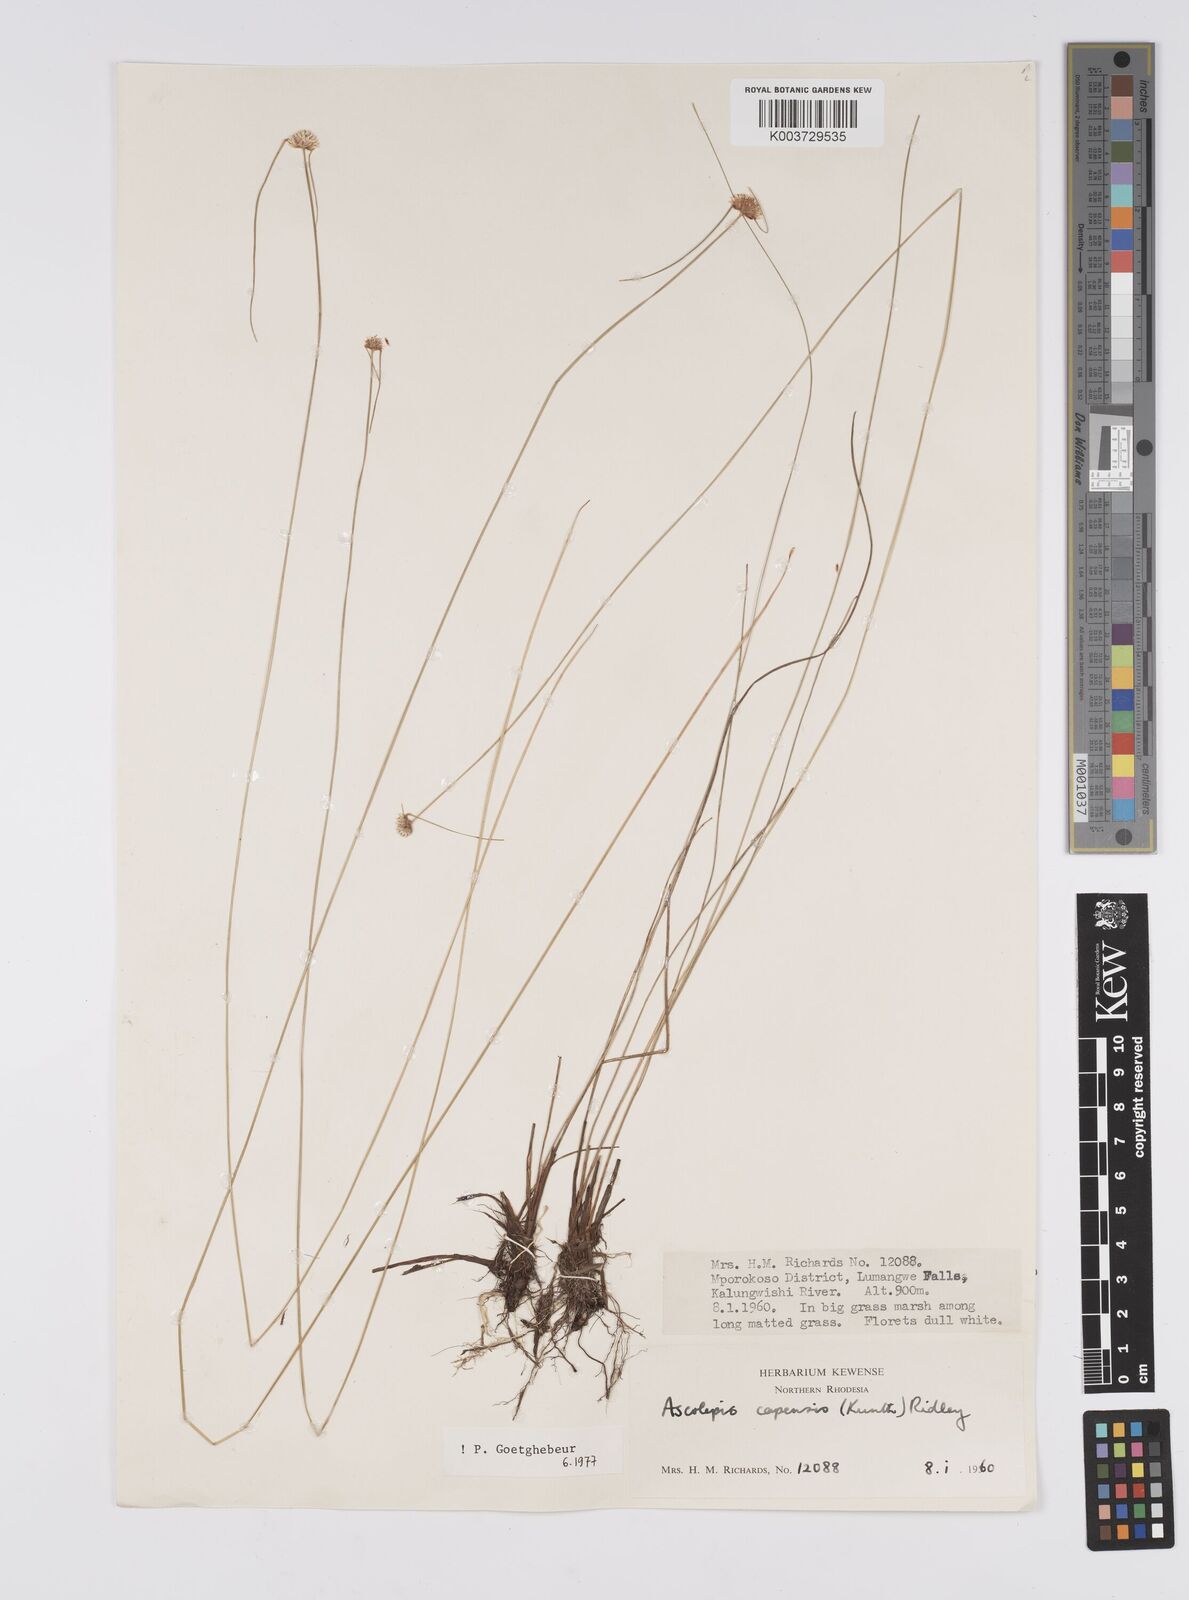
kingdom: Plantae
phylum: Tracheophyta
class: Liliopsida
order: Poales
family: Cyperaceae
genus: Cyperus
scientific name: Cyperus
